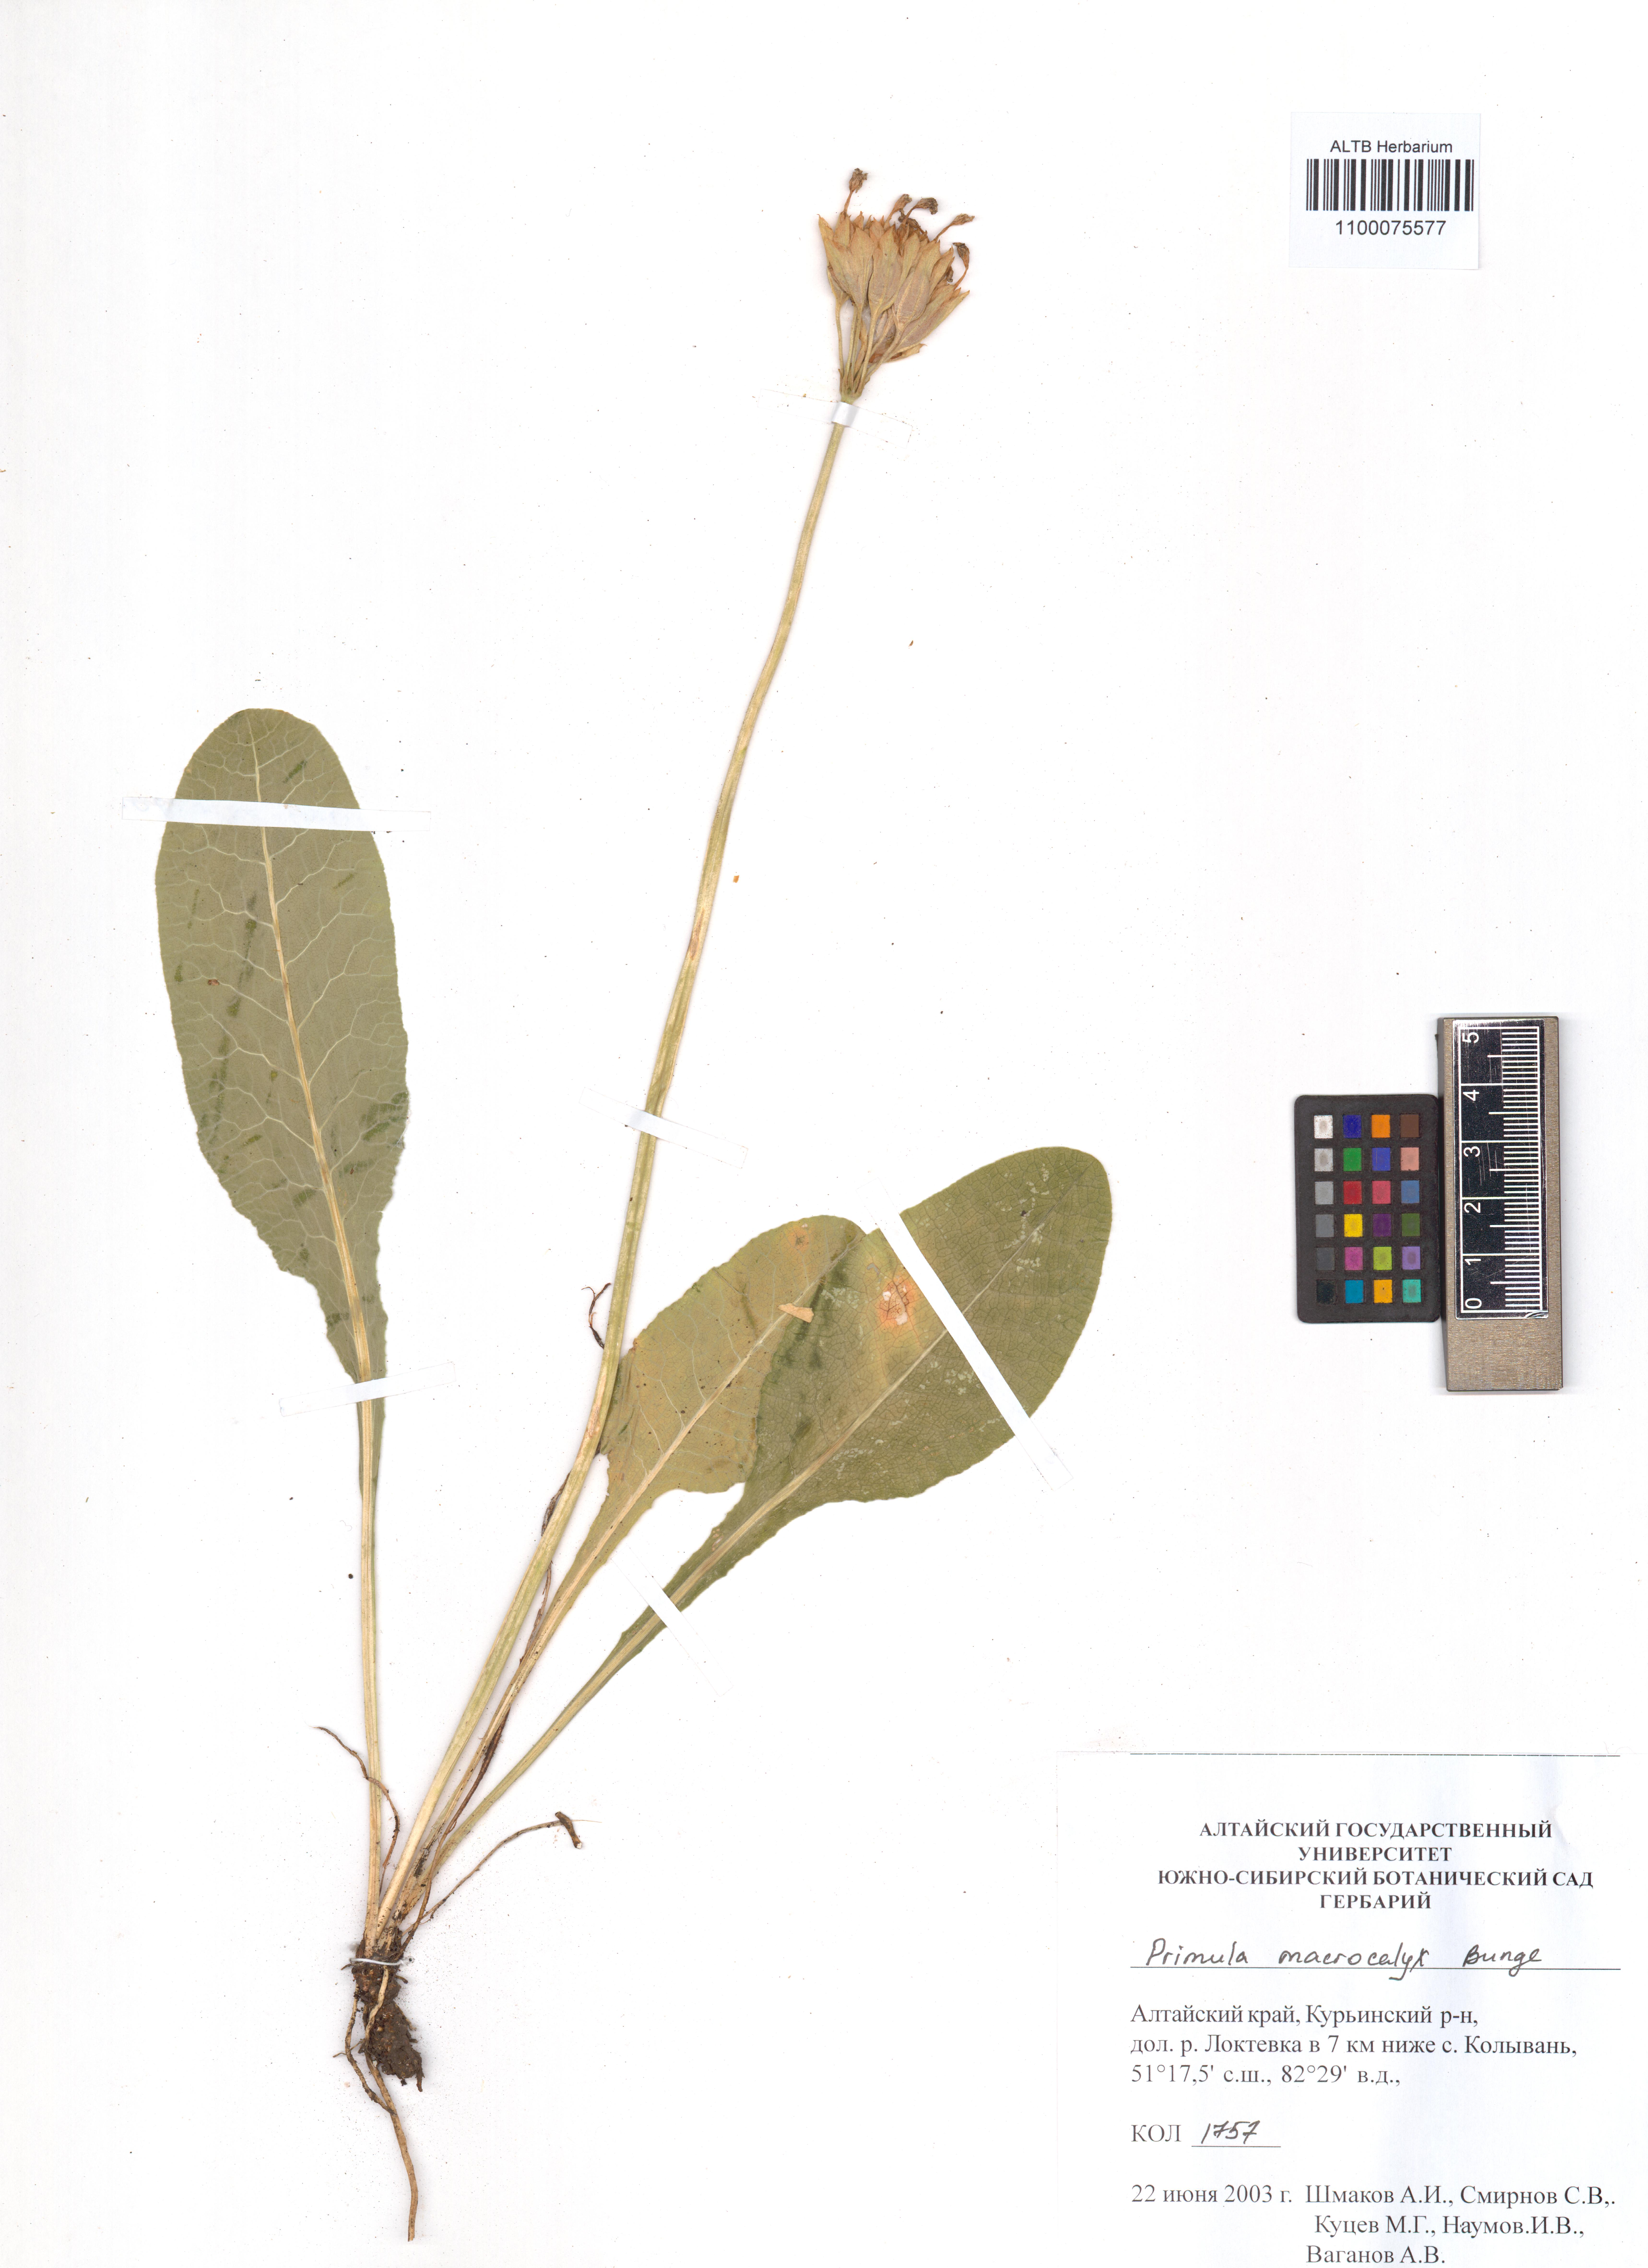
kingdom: Plantae
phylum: Tracheophyta
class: Magnoliopsida
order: Ericales
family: Primulaceae
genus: Primula
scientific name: Primula veris
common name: Cowslip
